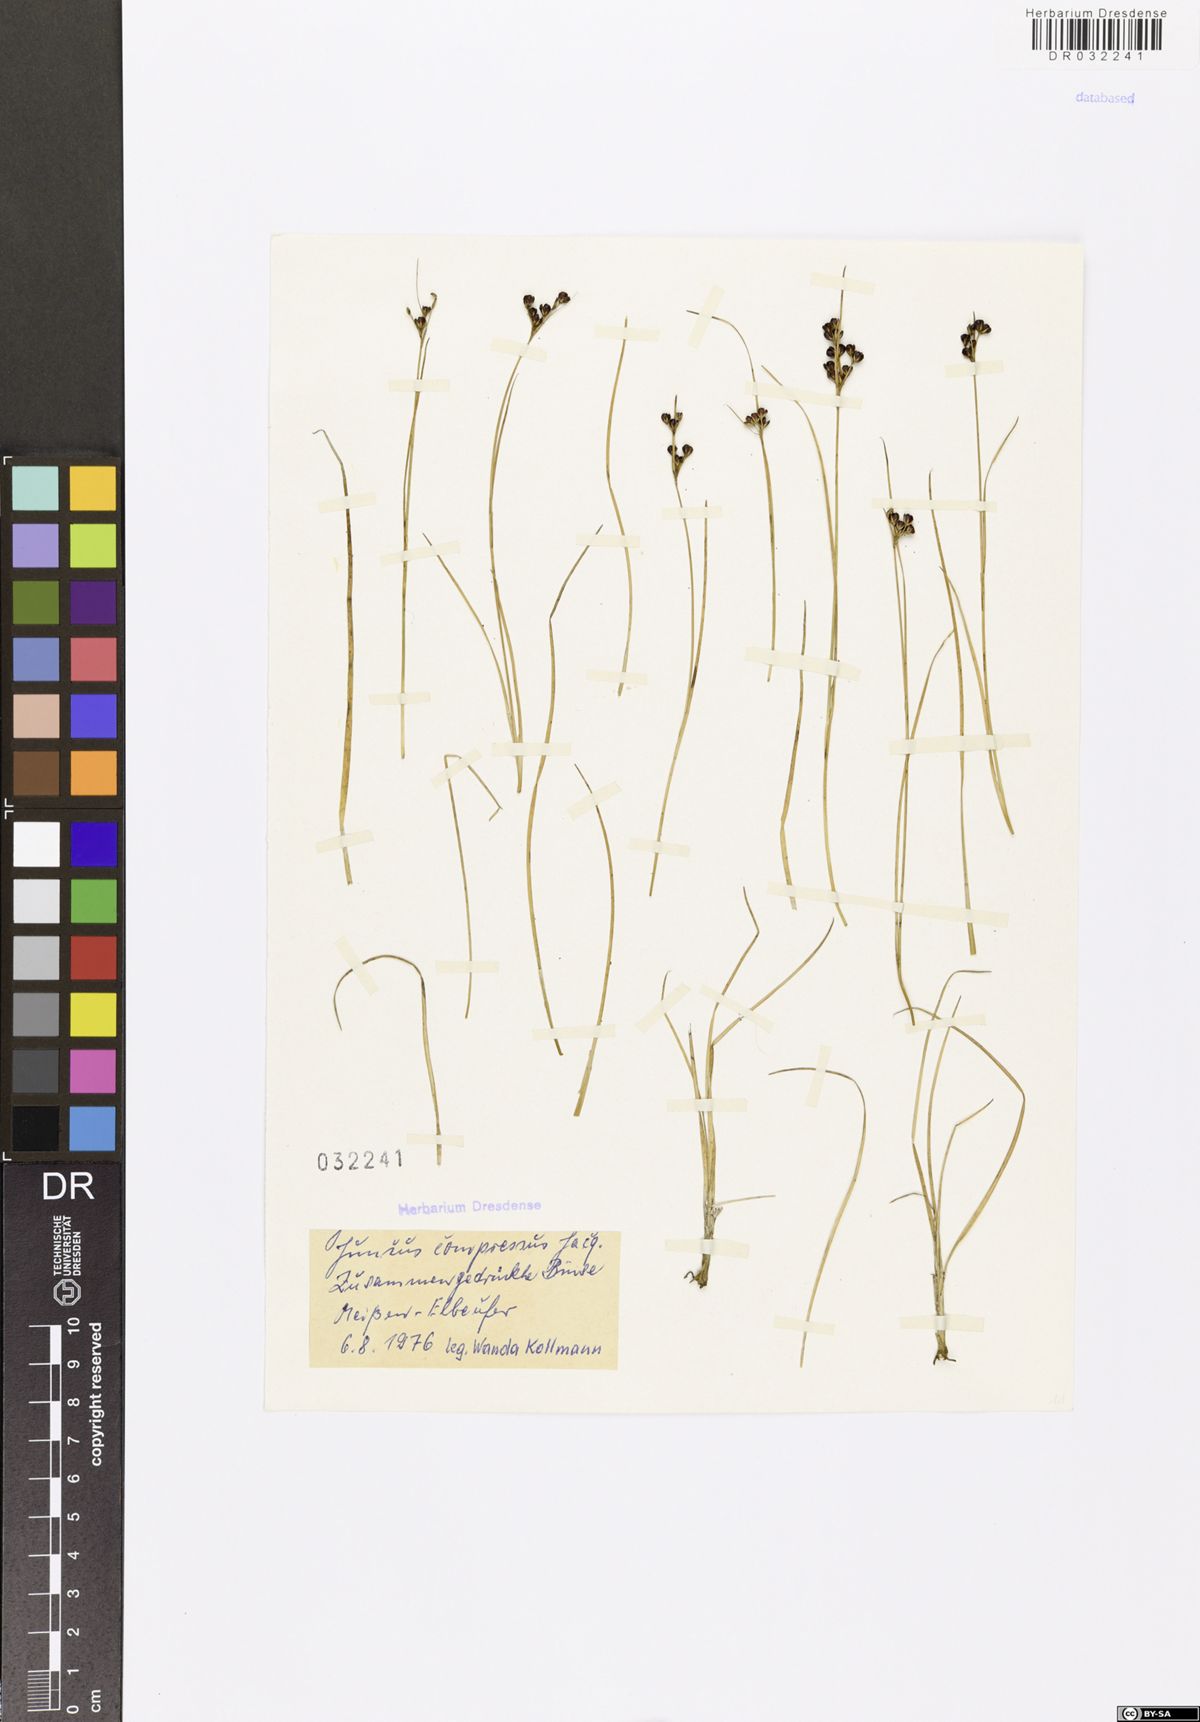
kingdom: Plantae
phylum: Tracheophyta
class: Liliopsida
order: Poales
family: Juncaceae
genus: Juncus
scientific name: Juncus compressus
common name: Round-fruited rush
